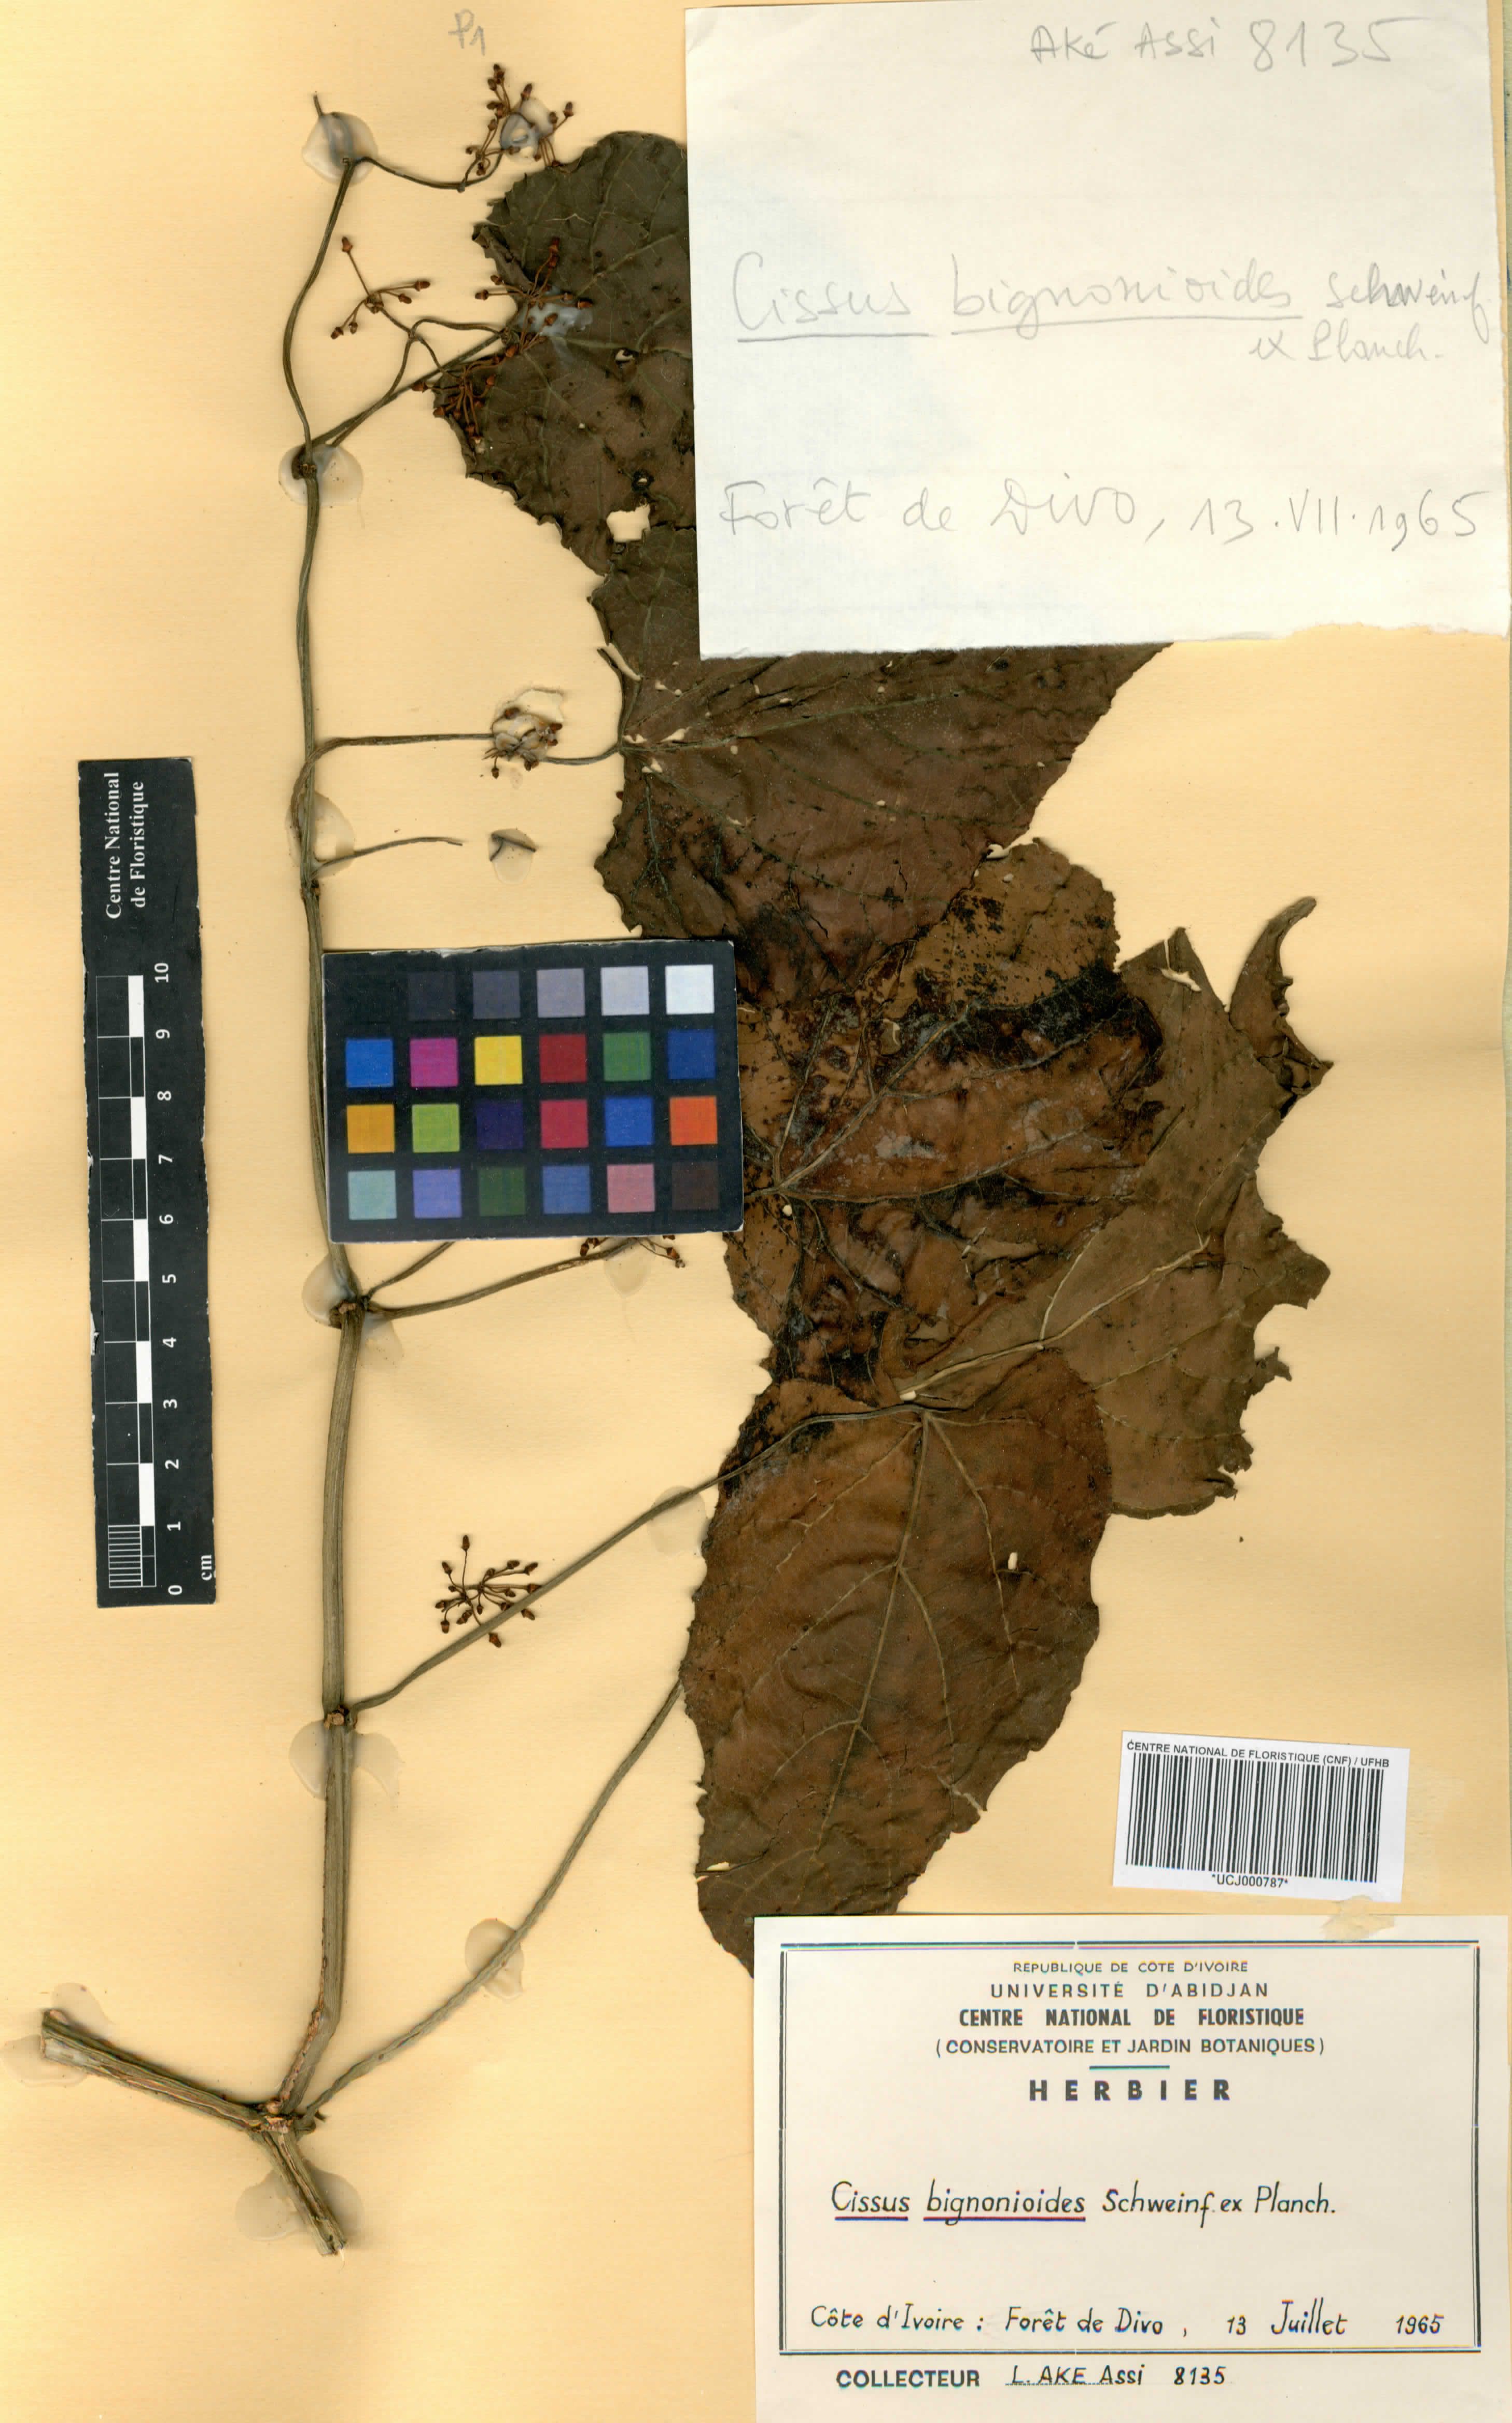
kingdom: Plantae
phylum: Tracheophyta
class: Magnoliopsida
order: Vitales
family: Vitaceae
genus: Cissus
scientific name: Cissus petiolata
